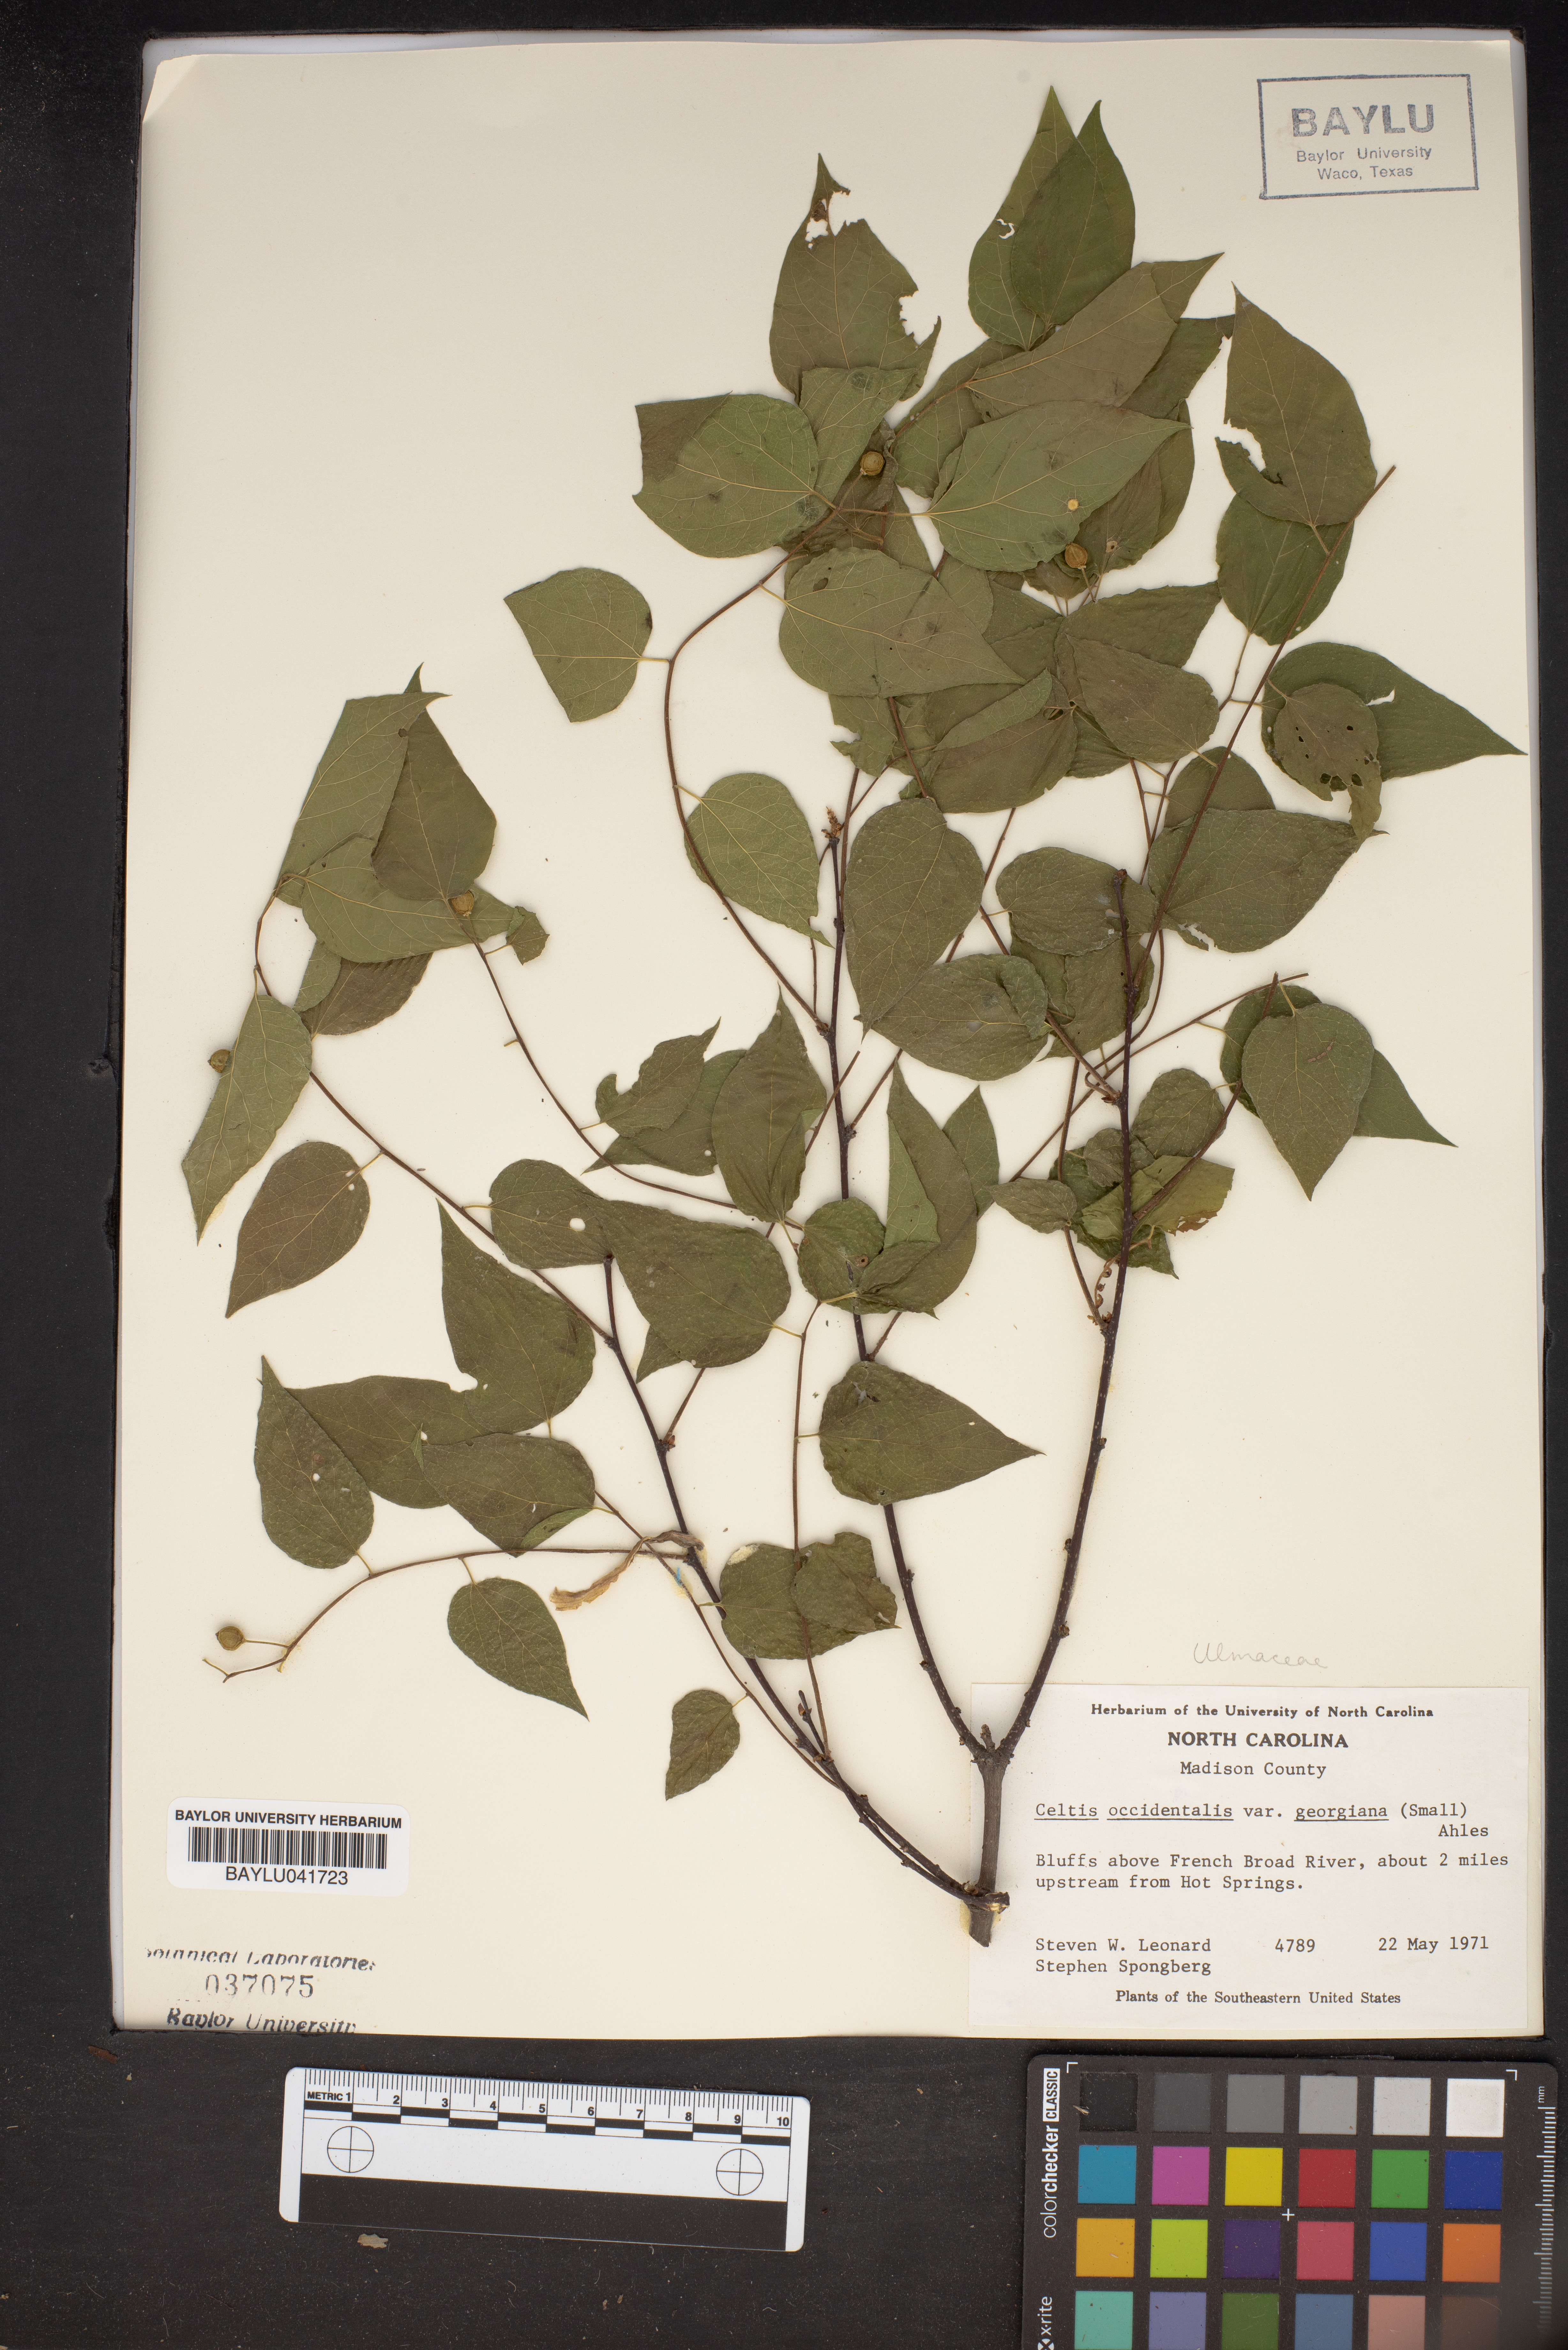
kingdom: Plantae
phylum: Tracheophyta
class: Magnoliopsida
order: Rosales
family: Cannabaceae
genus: Celtis
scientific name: Celtis tenuifolia
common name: Georgia hackberry
